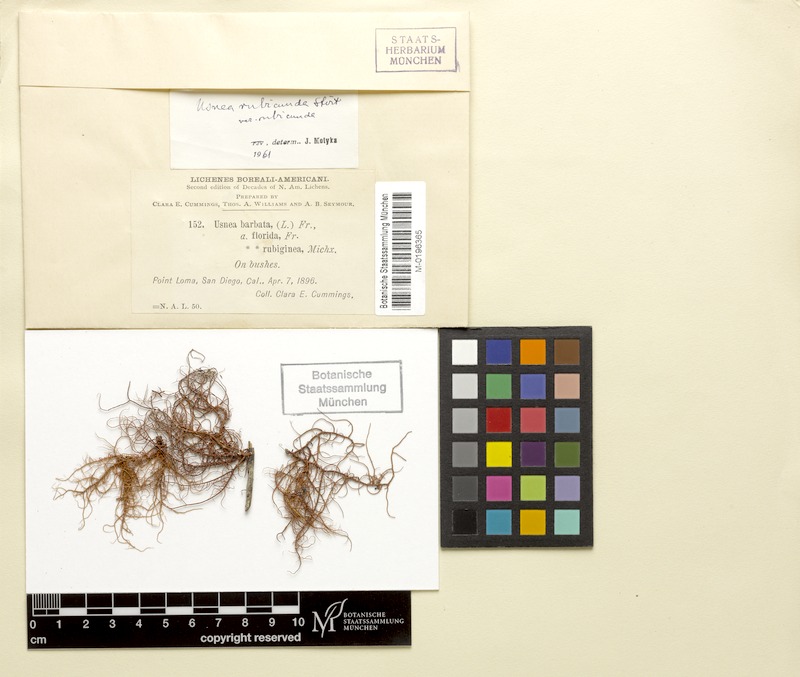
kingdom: Fungi
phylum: Ascomycota
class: Lecanoromycetes
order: Lecanorales
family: Parmeliaceae
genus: Usnea
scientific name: Usnea rubicunda
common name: Red beard lichen
